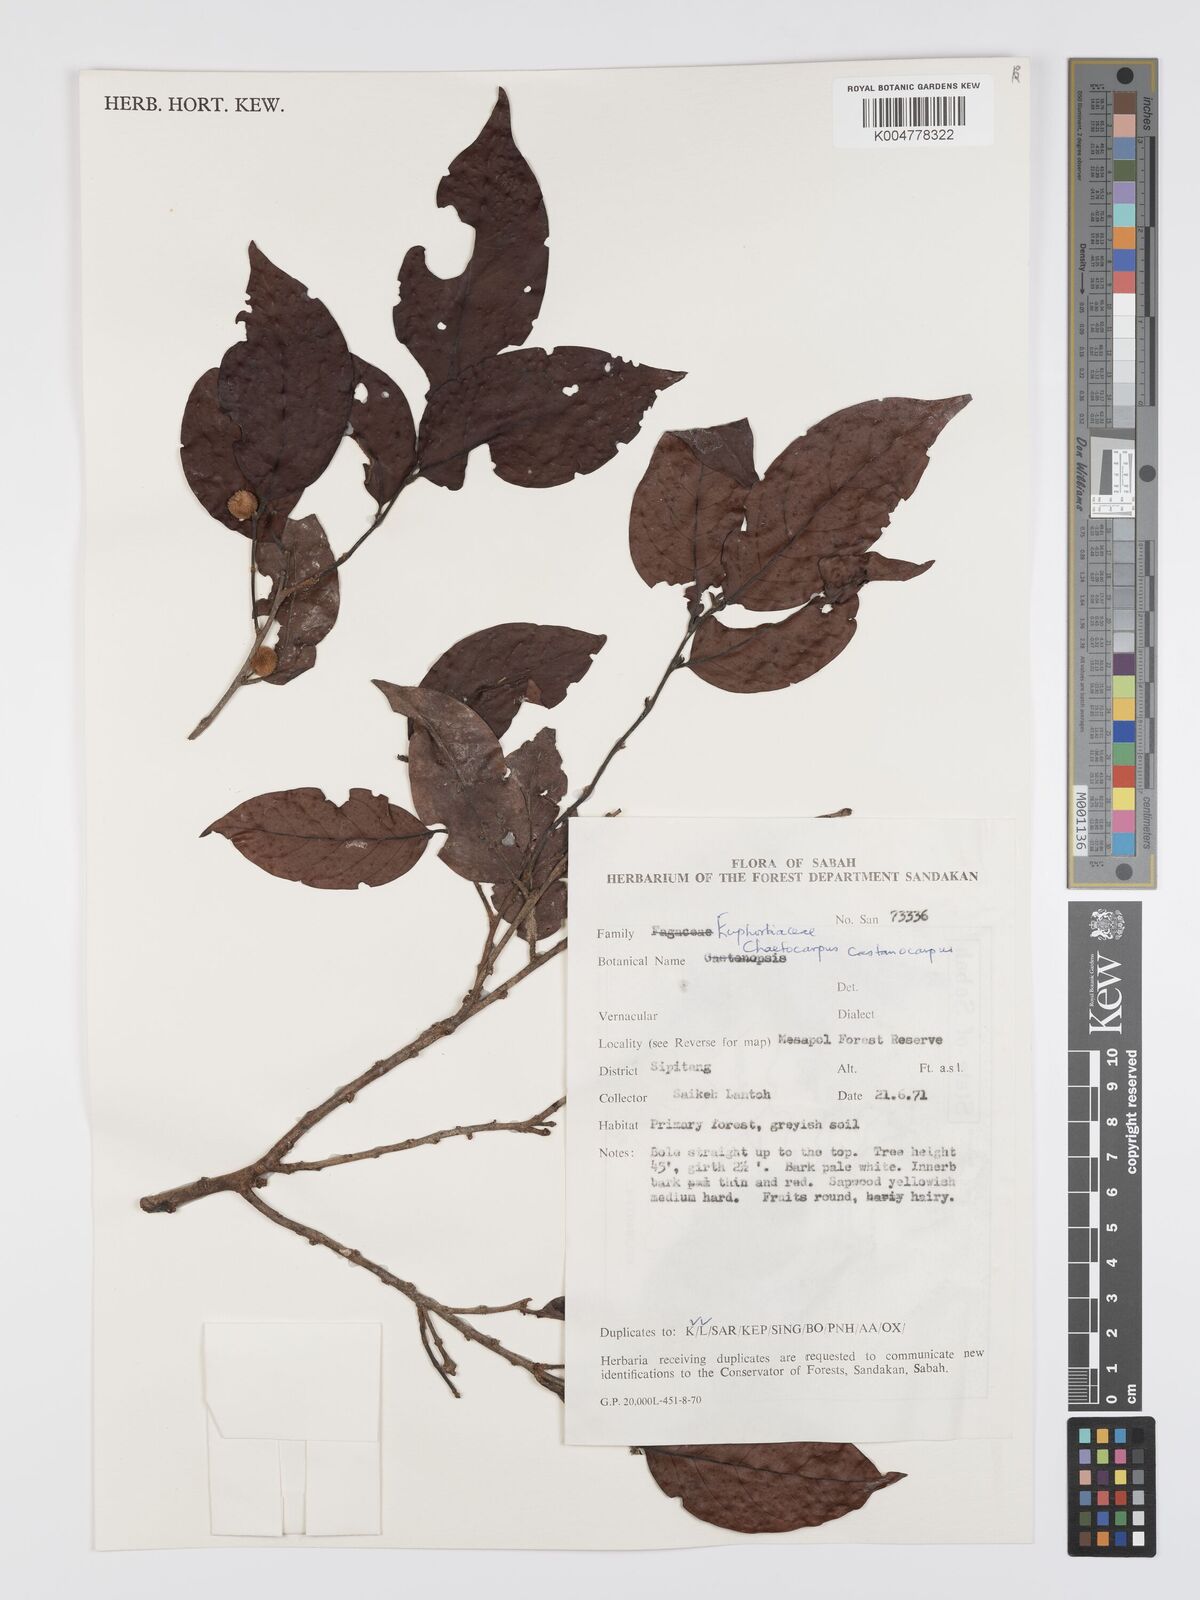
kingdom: Plantae
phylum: Tracheophyta
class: Magnoliopsida
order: Malpighiales
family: Peraceae
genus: Chaetocarpus
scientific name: Chaetocarpus castanocarpus
